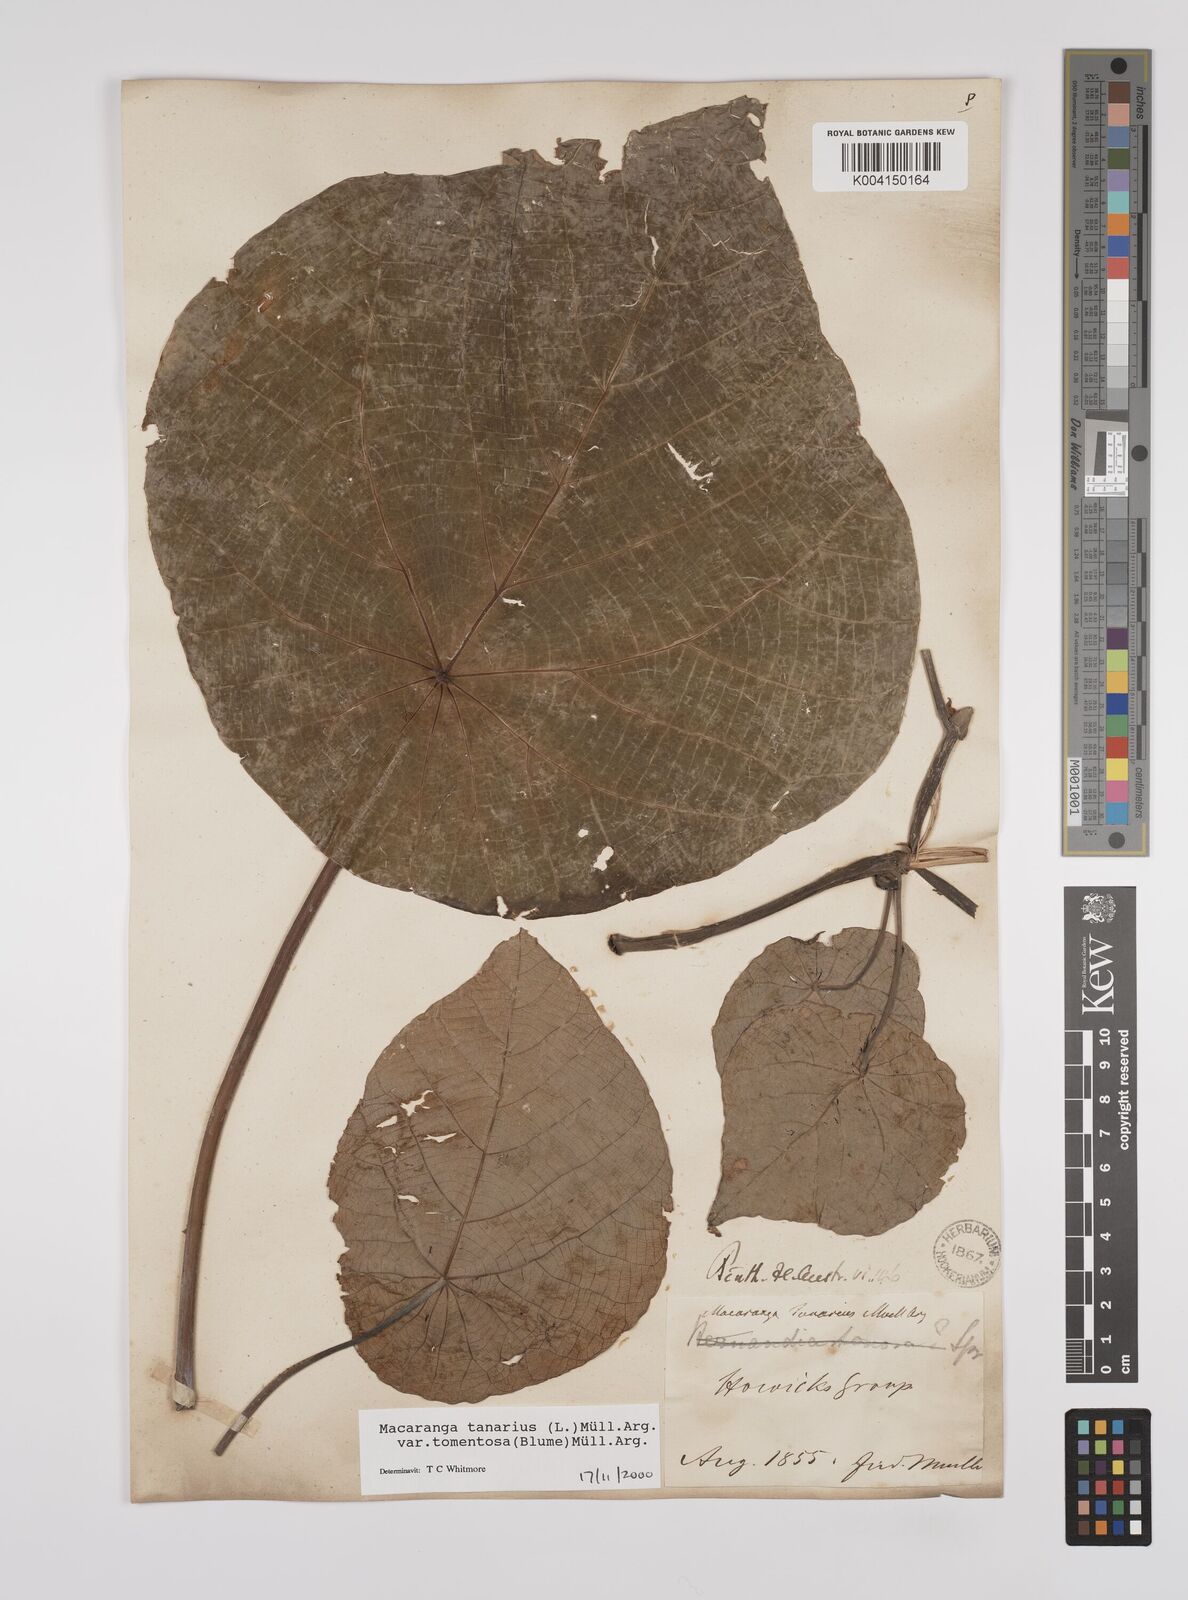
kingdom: Plantae
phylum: Tracheophyta
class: Magnoliopsida
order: Malpighiales
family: Euphorbiaceae
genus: Macaranga
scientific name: Macaranga tanarius
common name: Parasol leaf tree
